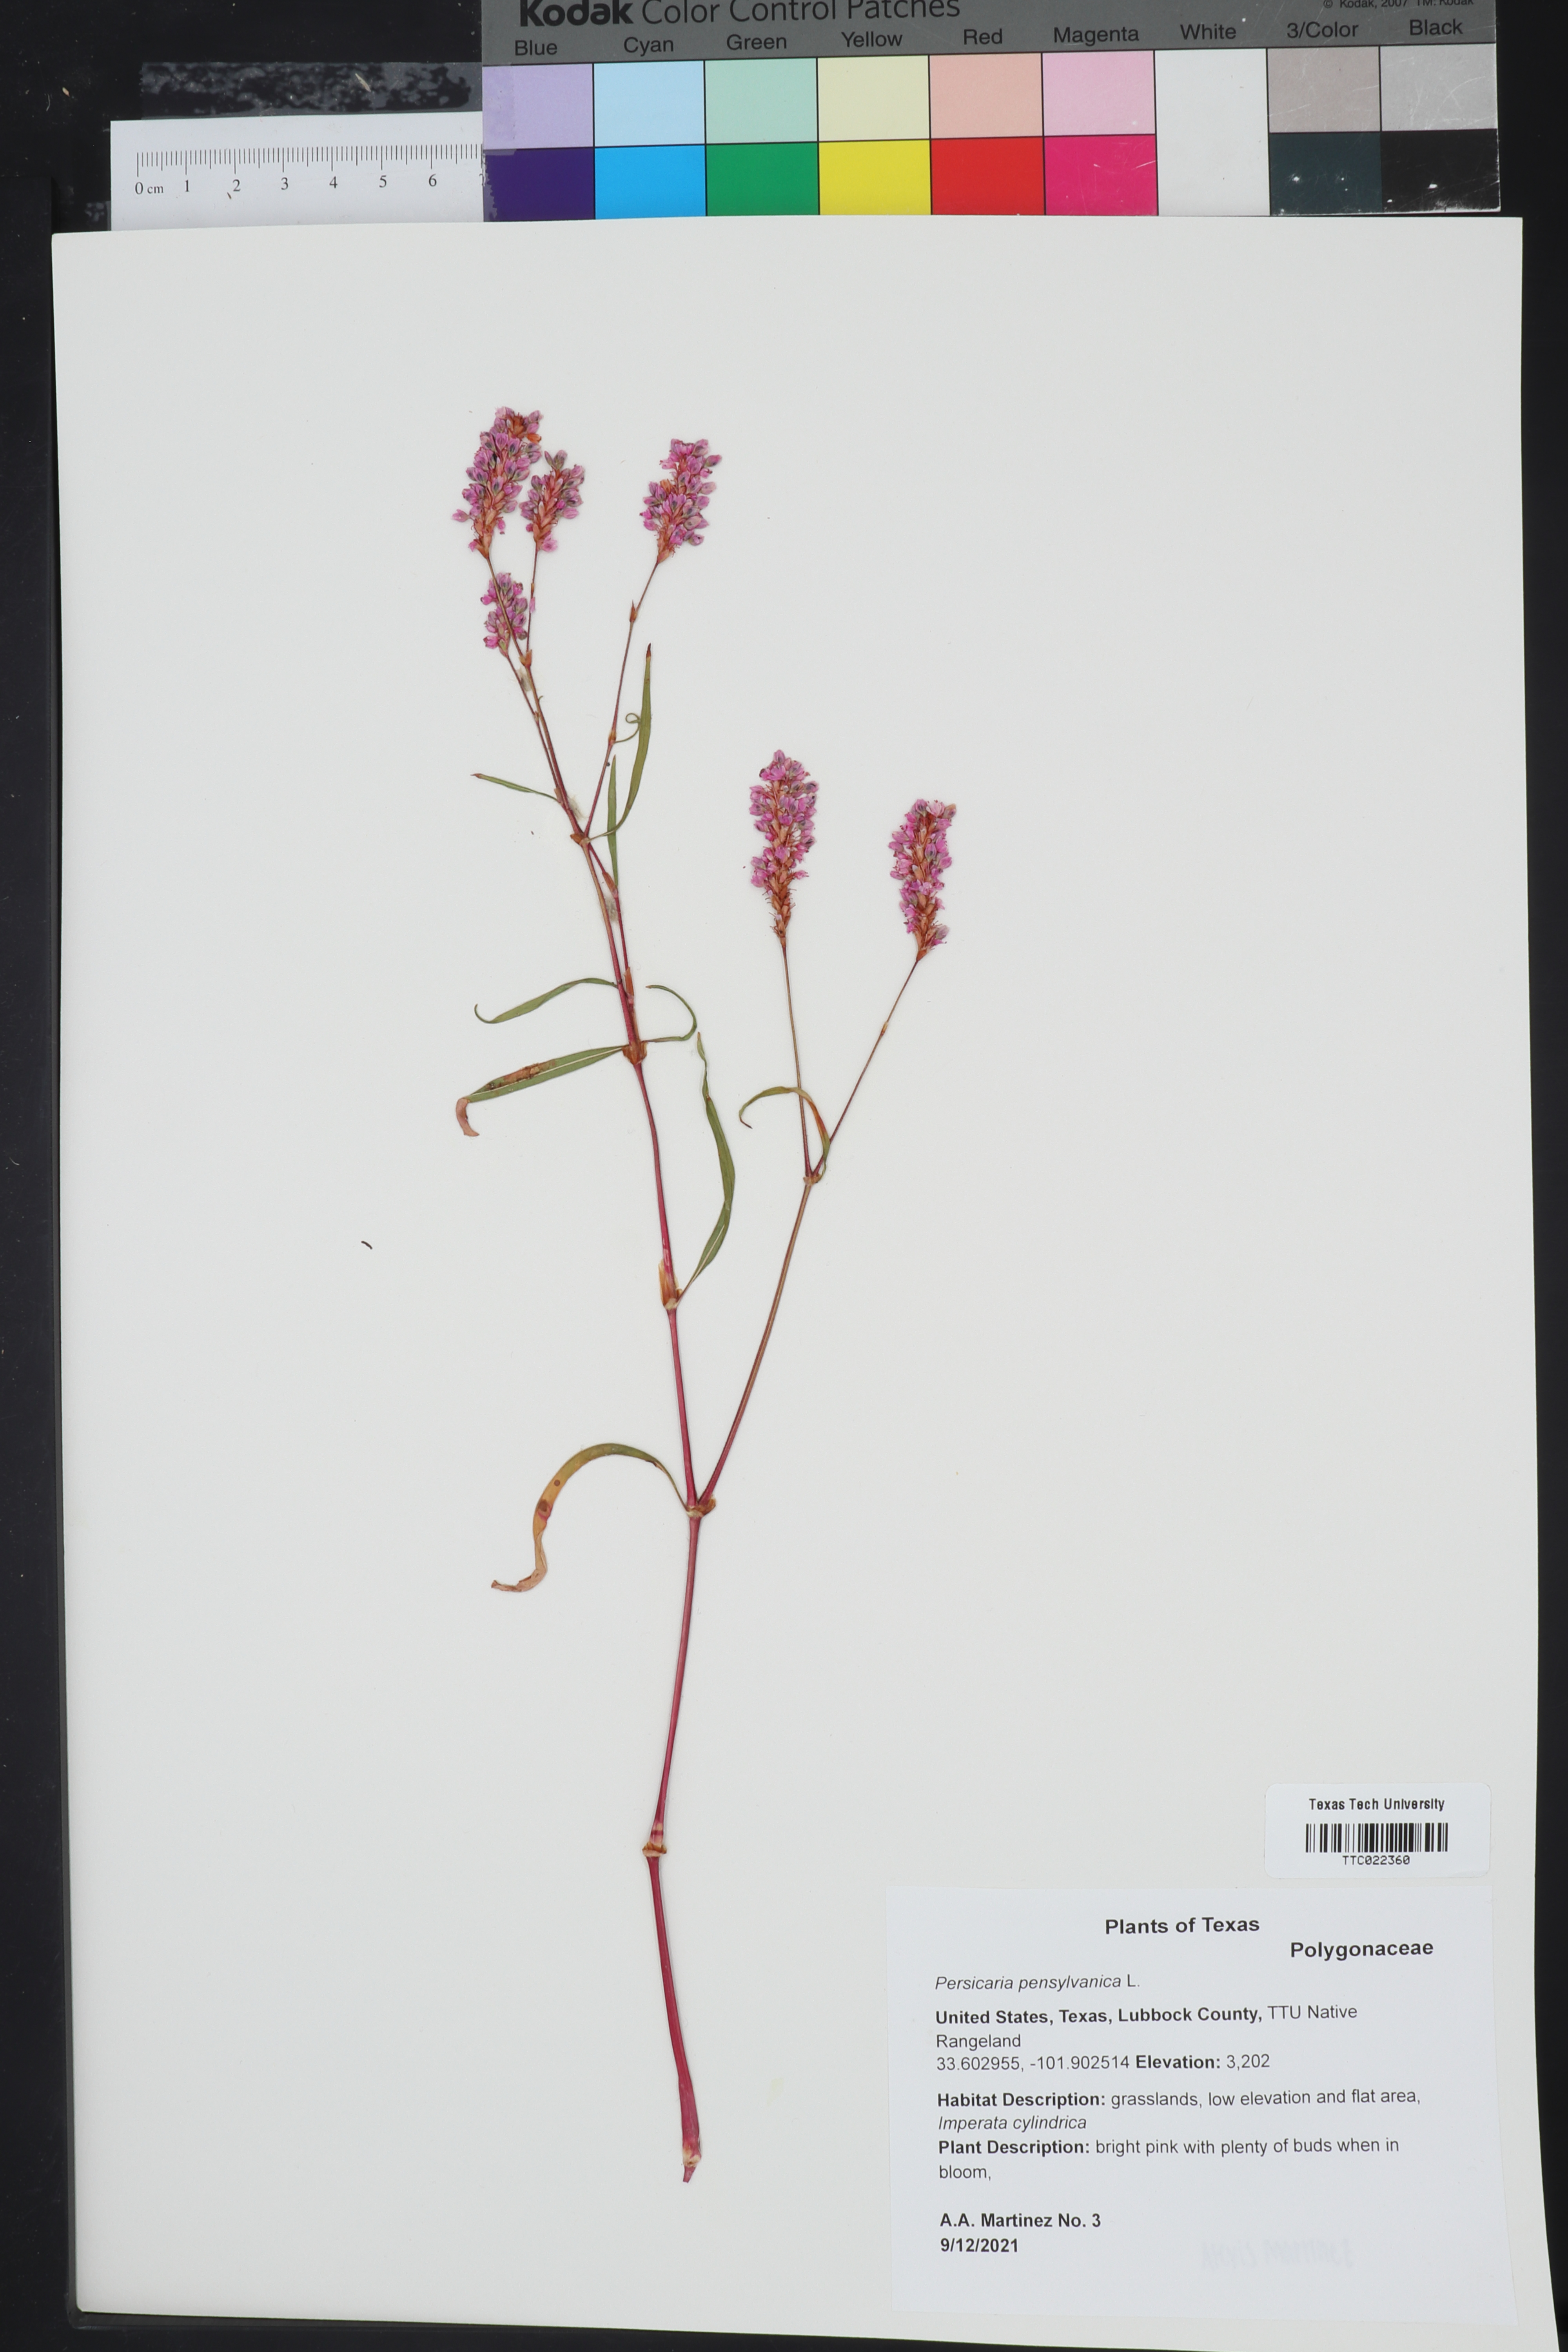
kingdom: Plantae
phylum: Tracheophyta
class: Magnoliopsida
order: Caryophyllales
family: Polygonaceae
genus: Persicaria
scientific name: Persicaria pensylvanica
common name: Pinkweed
